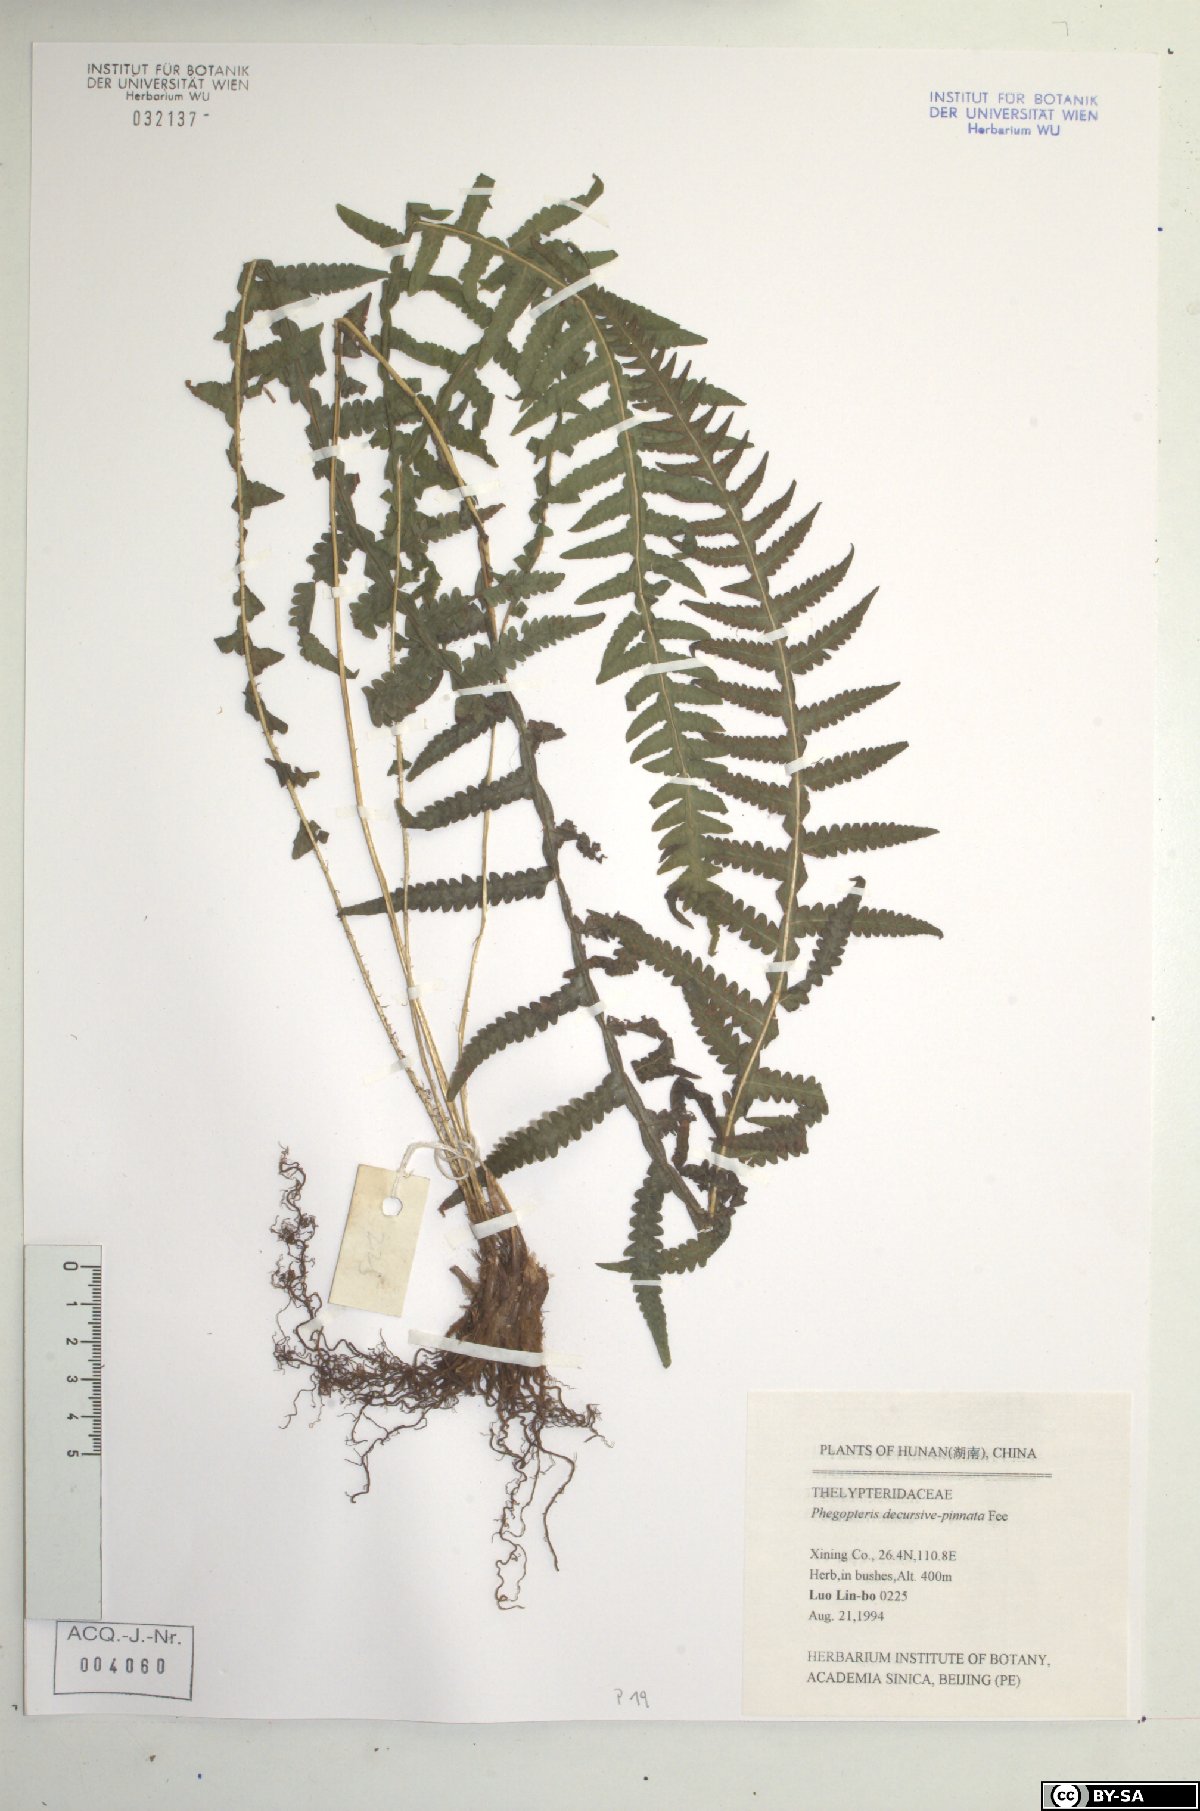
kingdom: Plantae
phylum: Tracheophyta
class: Polypodiopsida
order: Polypodiales
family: Thelypteridaceae
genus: Phegopteris
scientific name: Phegopteris decursive-pinnata
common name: Japanese beech fern
